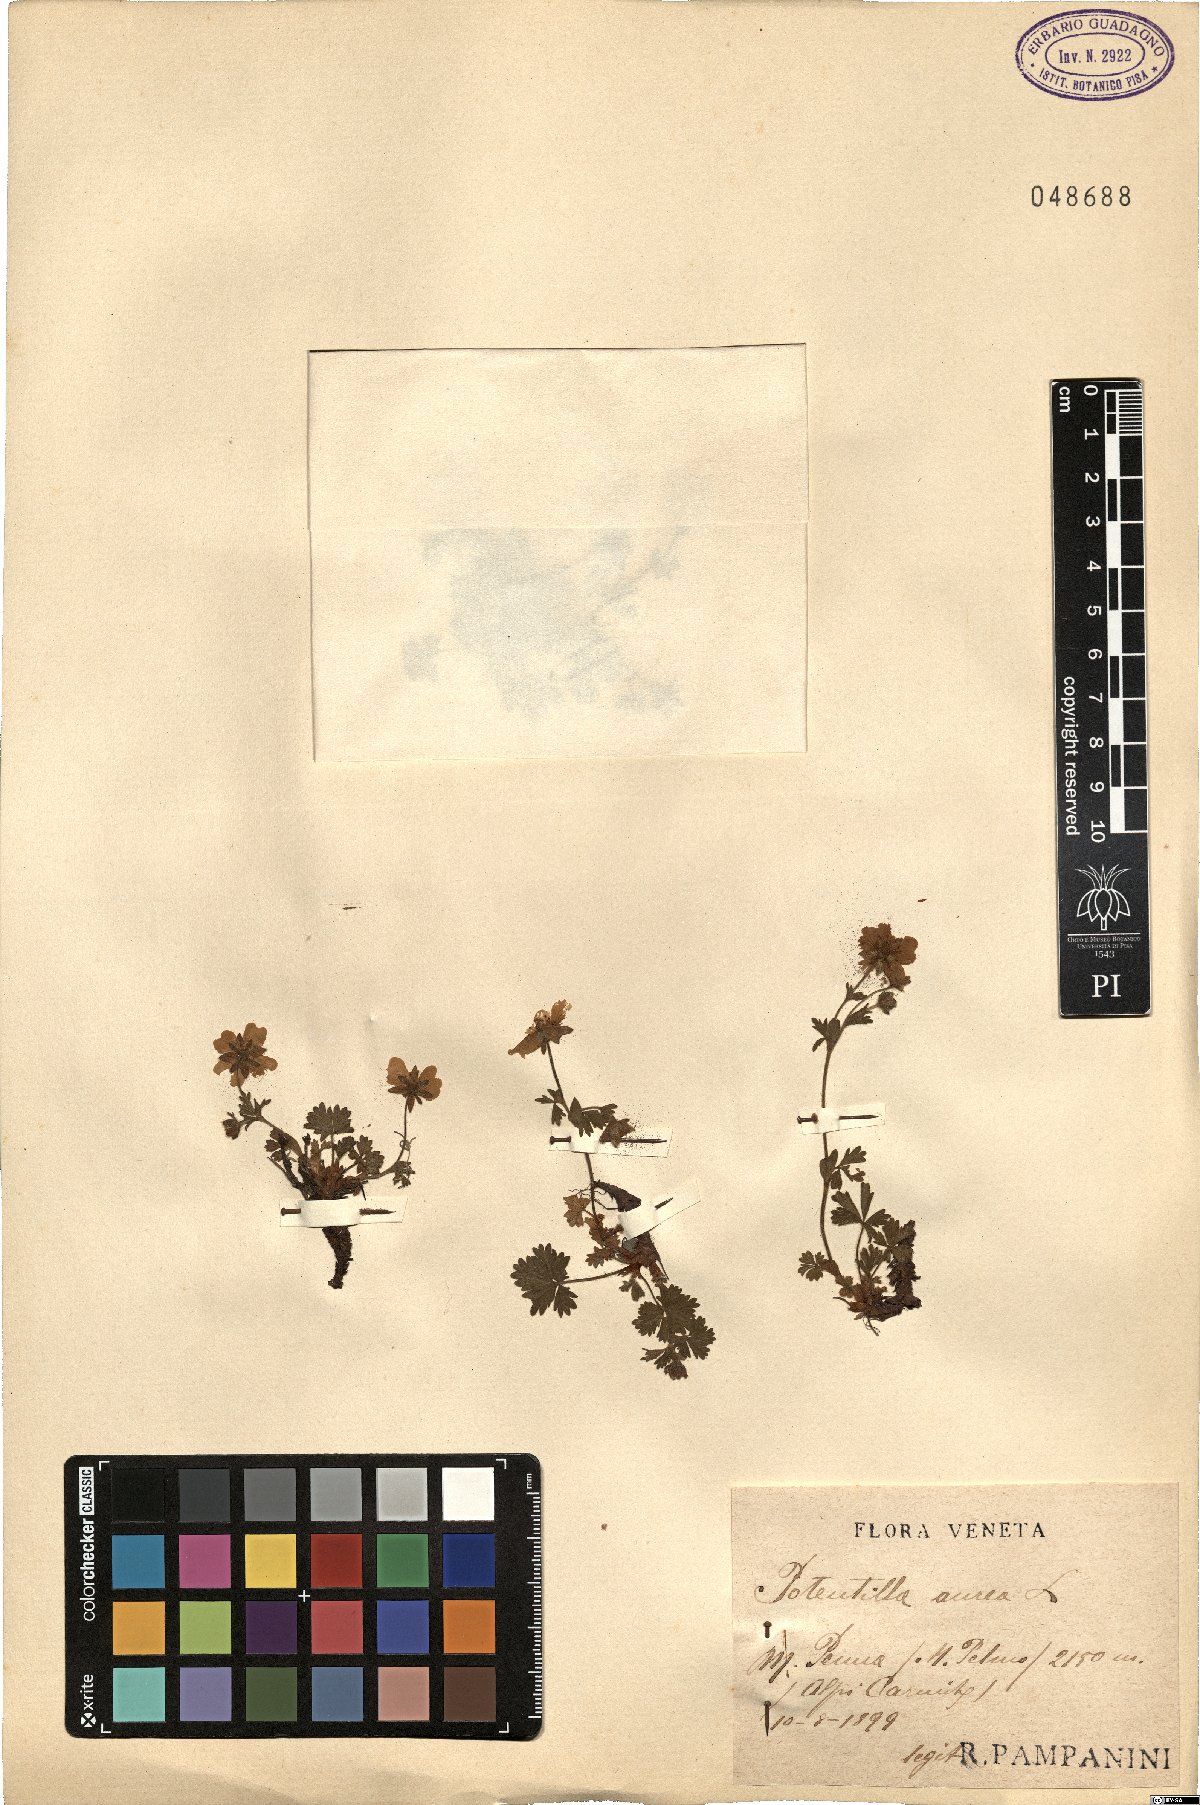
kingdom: Plantae
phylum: Tracheophyta
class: Magnoliopsida
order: Rosales
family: Rosaceae
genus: Potentilla
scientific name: Potentilla aurea
